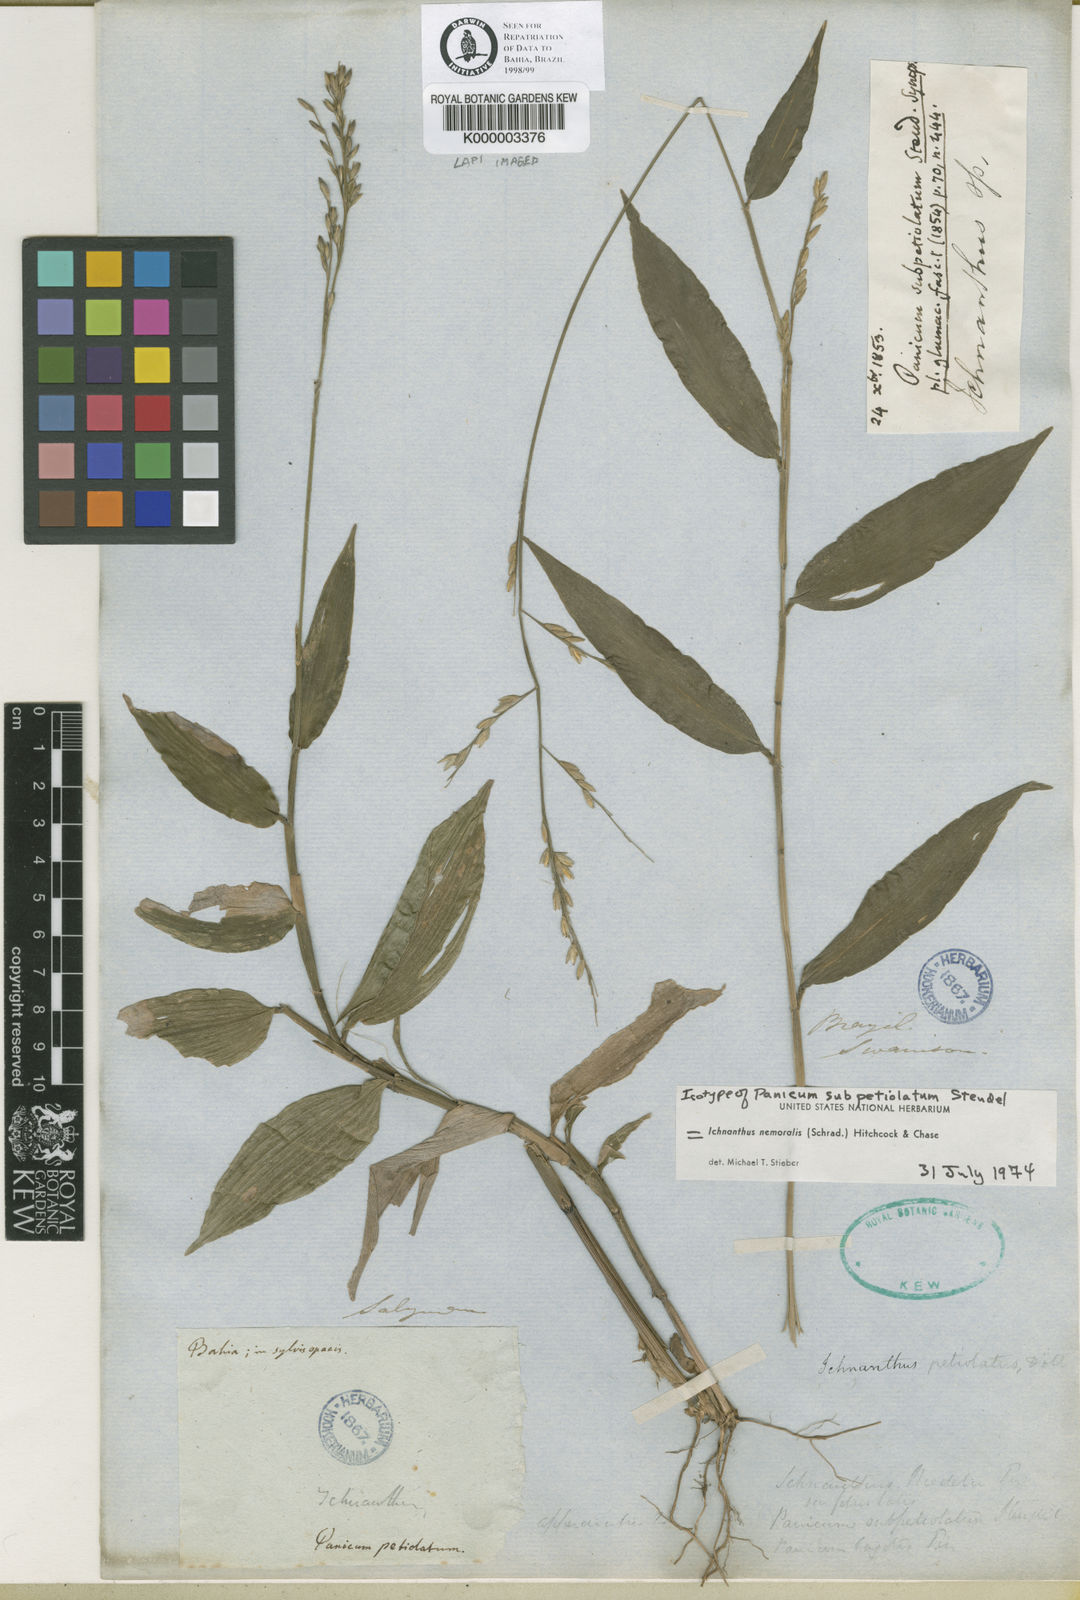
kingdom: Plantae
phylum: Tracheophyta
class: Liliopsida
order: Poales
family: Poaceae
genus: Ichnanthus
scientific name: Ichnanthus nemoralis
